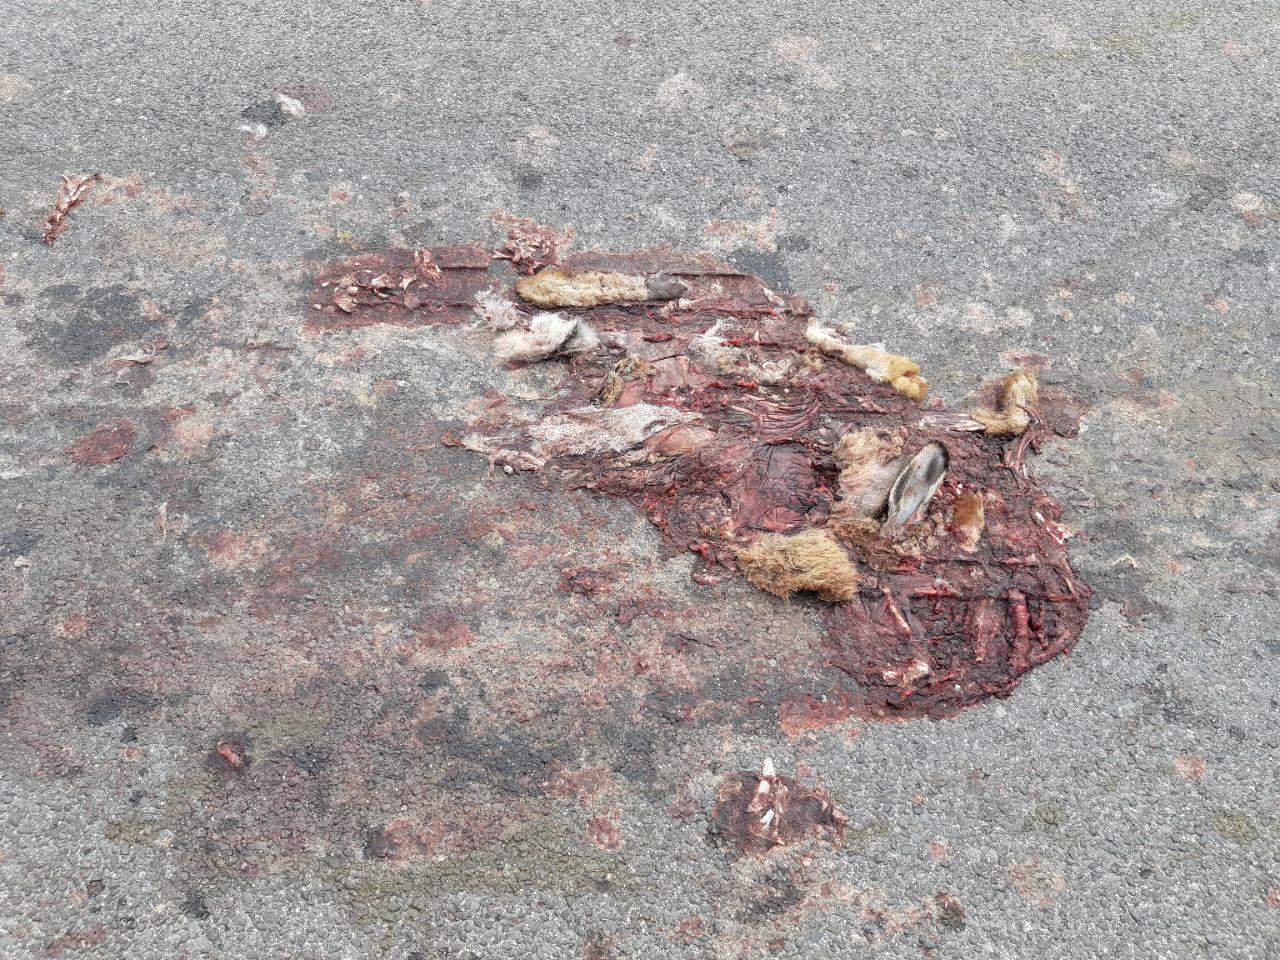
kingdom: Animalia
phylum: Chordata
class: Mammalia
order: Lagomorpha
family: Leporidae
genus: Lepus
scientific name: Lepus europaeus
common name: European hare
